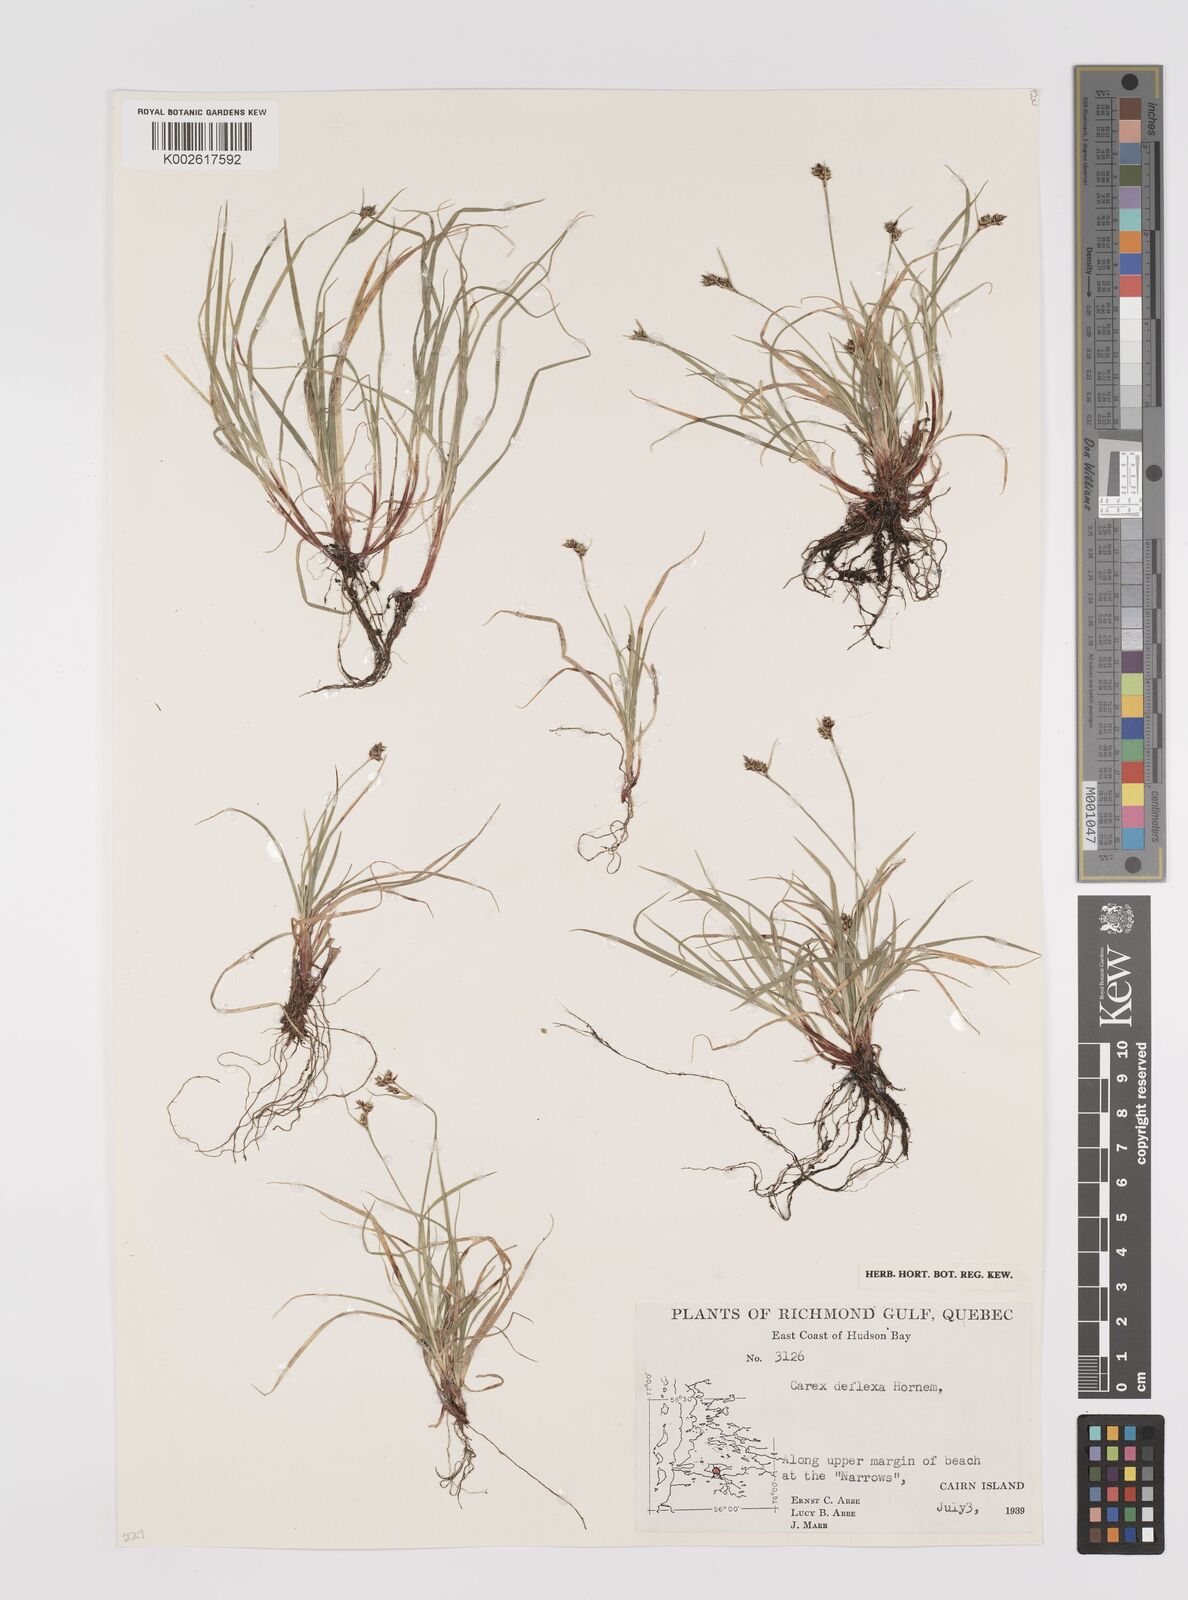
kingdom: Plantae
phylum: Tracheophyta
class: Liliopsida
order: Poales
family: Cyperaceae
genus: Carex
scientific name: Carex deflexa
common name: Bent northern sedge
